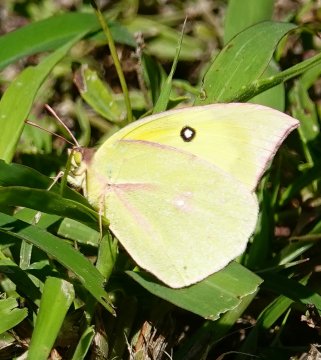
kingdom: Animalia
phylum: Arthropoda
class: Insecta
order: Lepidoptera
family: Pieridae
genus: Zerene
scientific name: Zerene cesonia
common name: Southern Dogface
